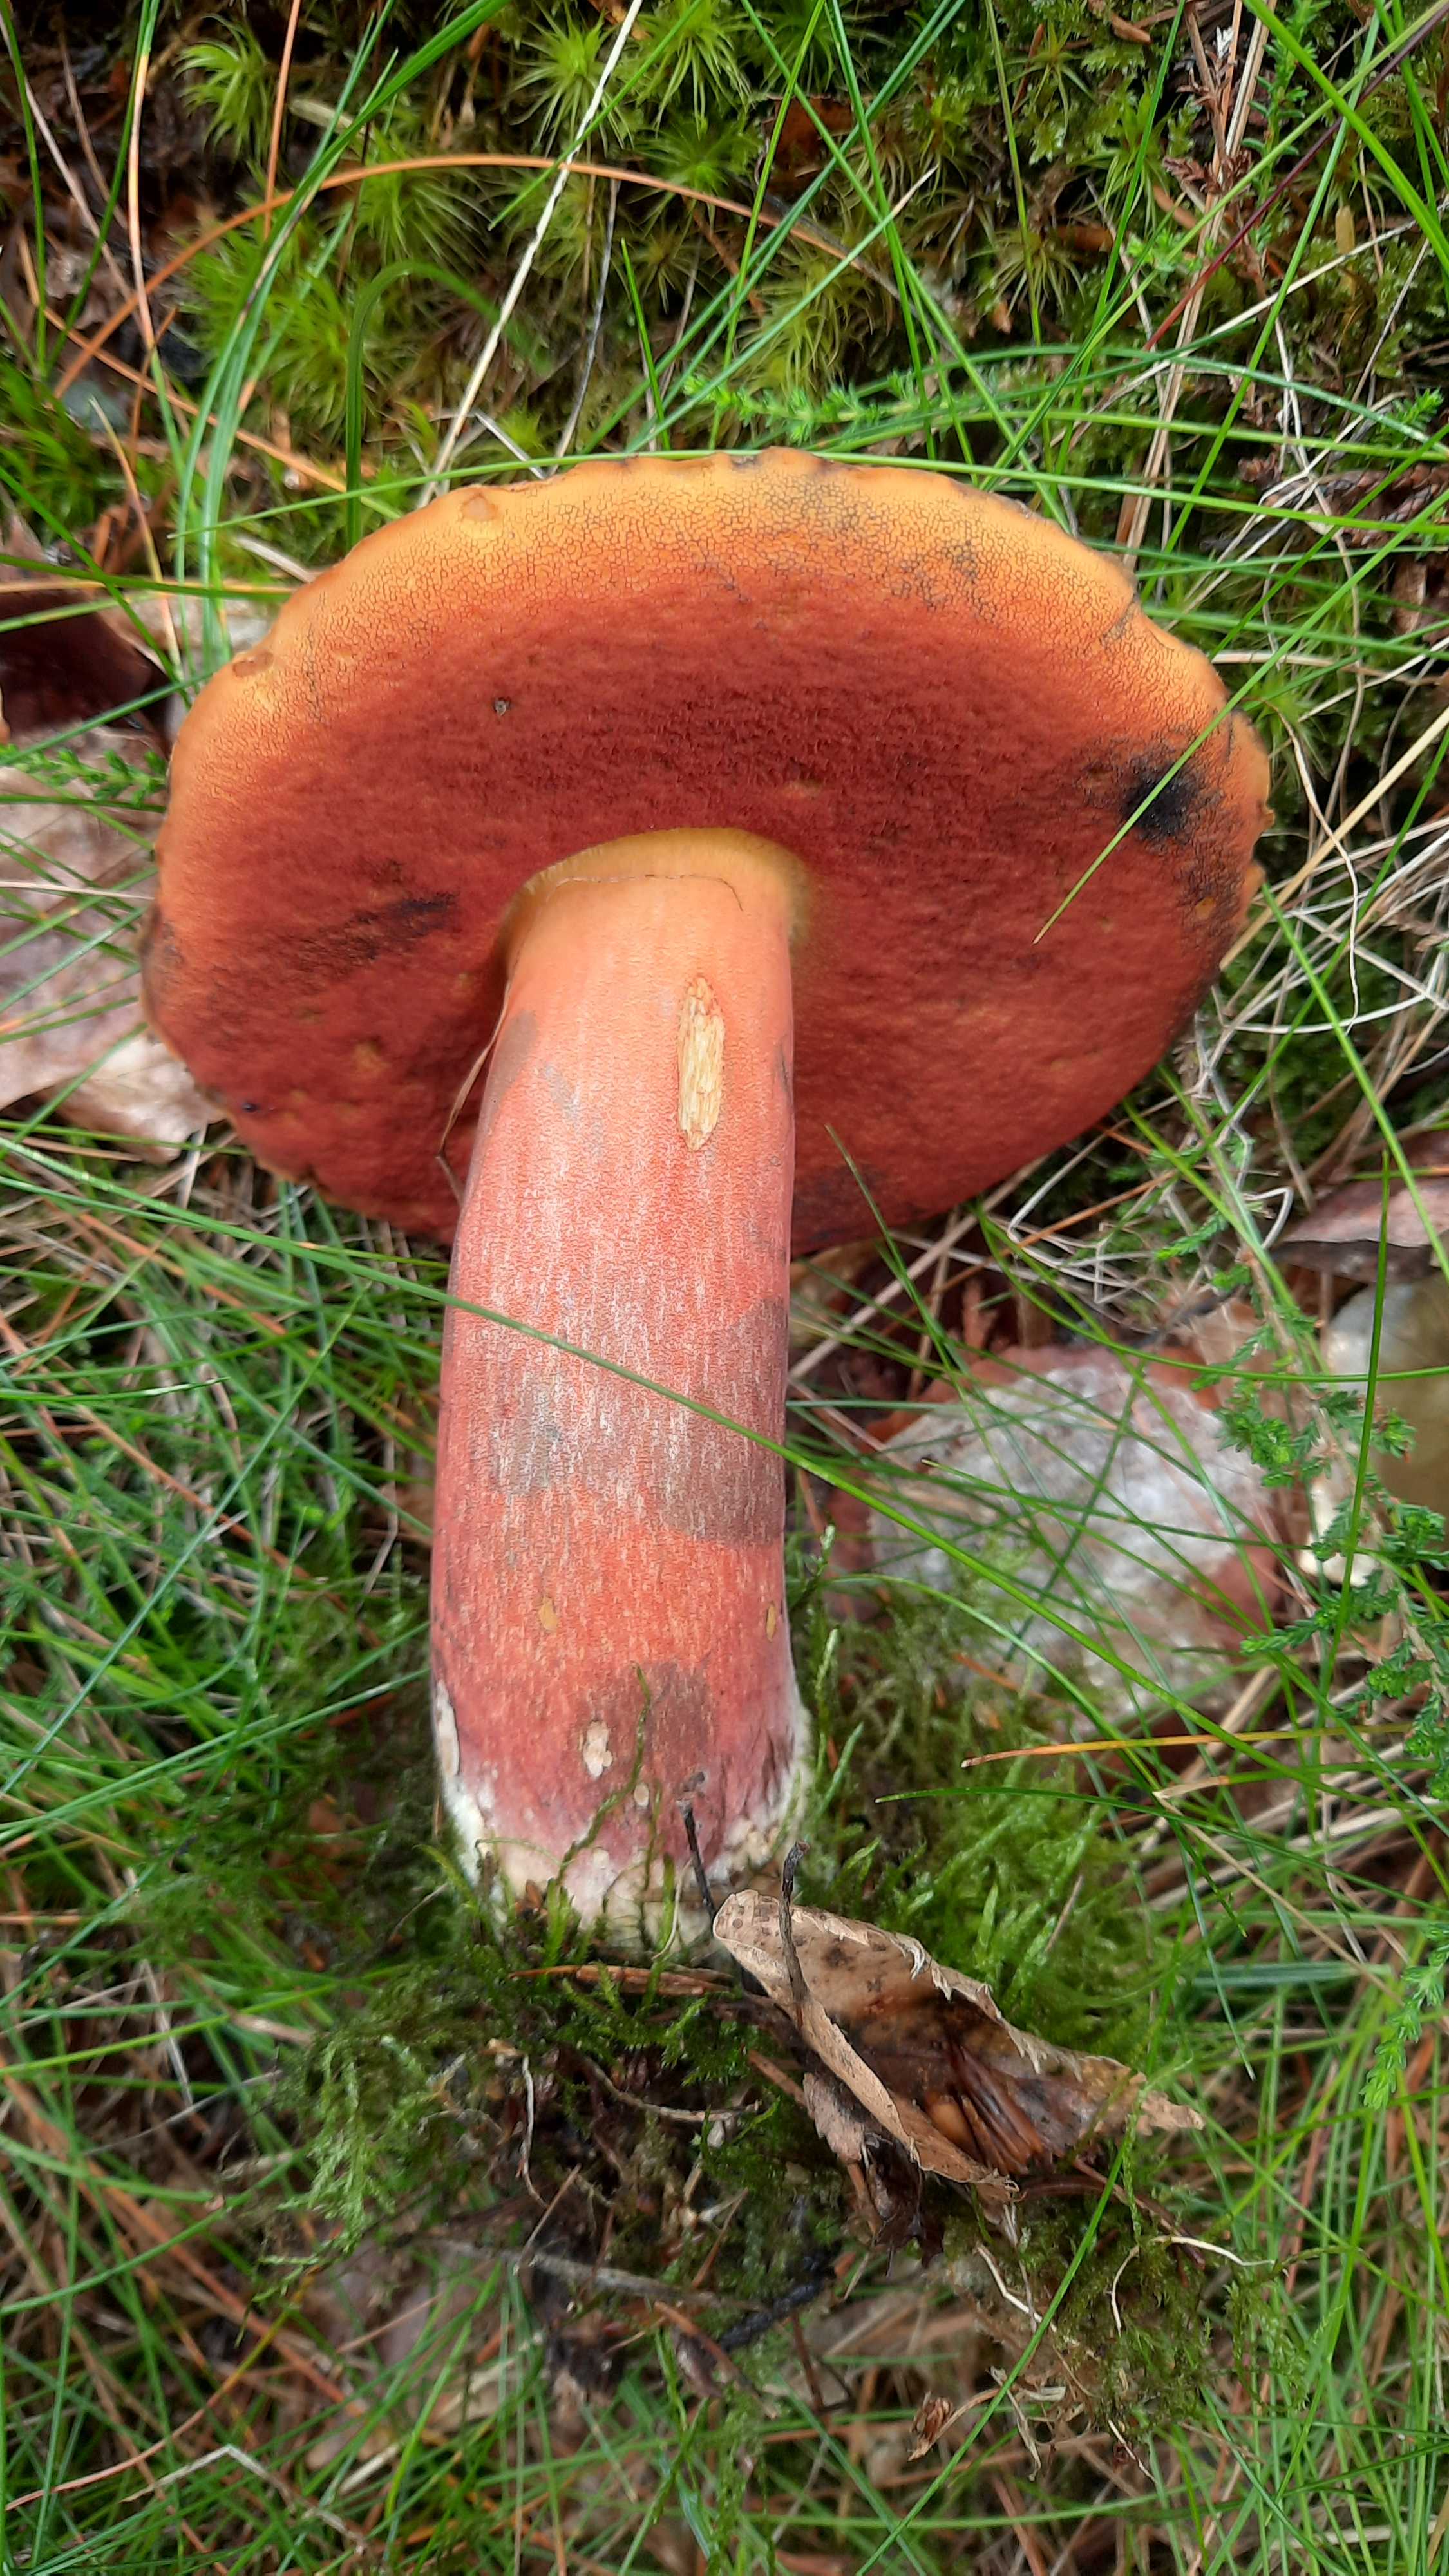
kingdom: Fungi
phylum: Basidiomycota
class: Agaricomycetes
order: Boletales
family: Boletaceae
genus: Neoboletus
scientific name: Neoboletus erythropus
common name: punktstokket indigorørhat
